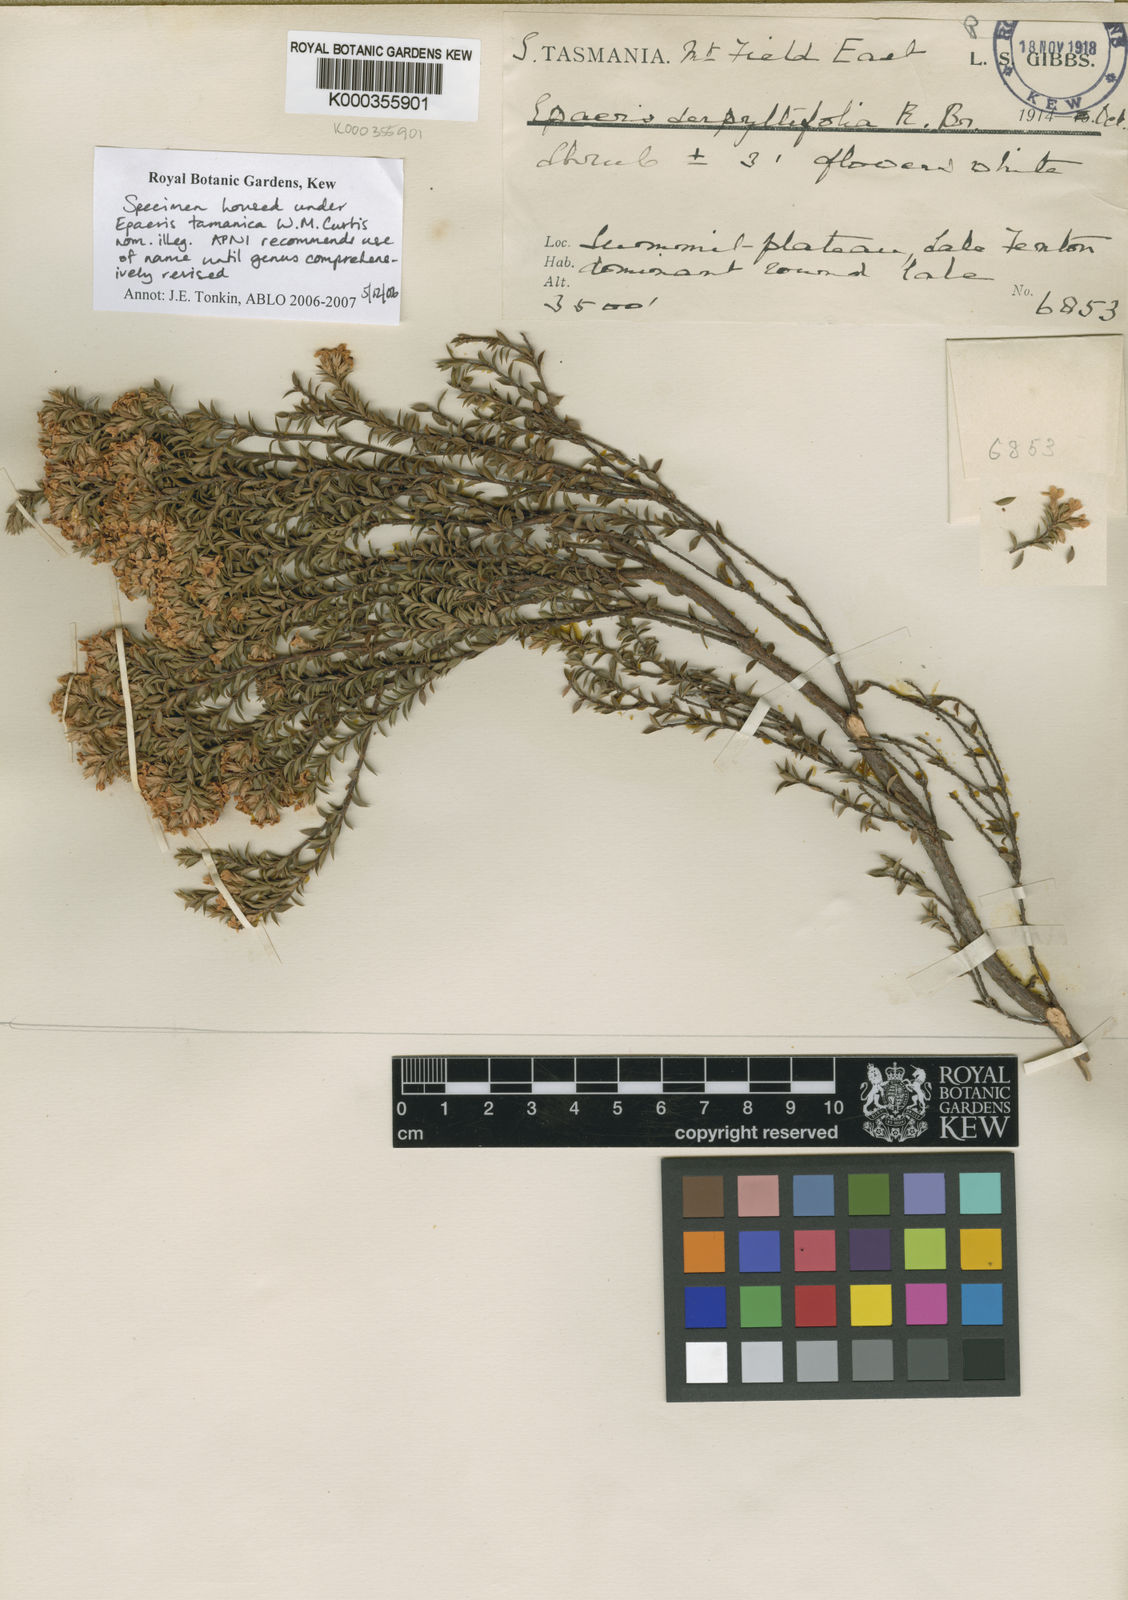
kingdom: Plantae
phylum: Tracheophyta
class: Magnoliopsida
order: Ericales
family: Ericaceae
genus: Epacris
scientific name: Epacris tasmanica
